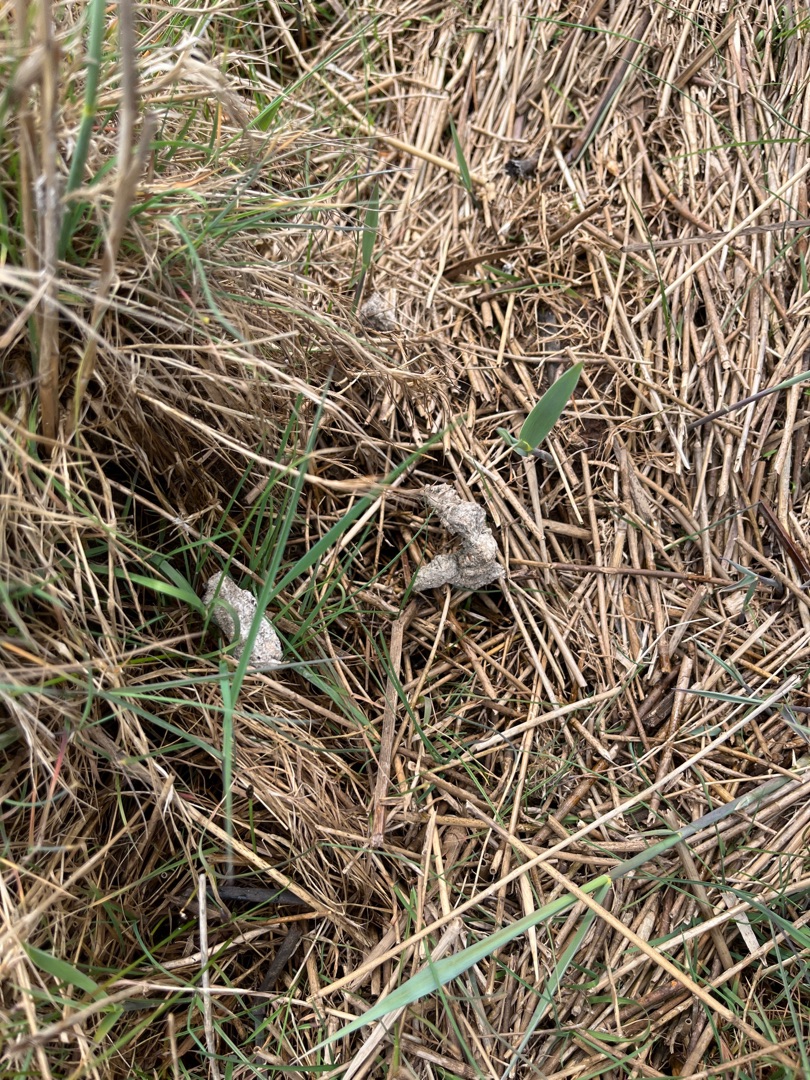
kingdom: Animalia
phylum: Chordata
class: Mammalia
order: Carnivora
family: Mustelidae
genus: Lutra
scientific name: Lutra lutra
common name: Odder
